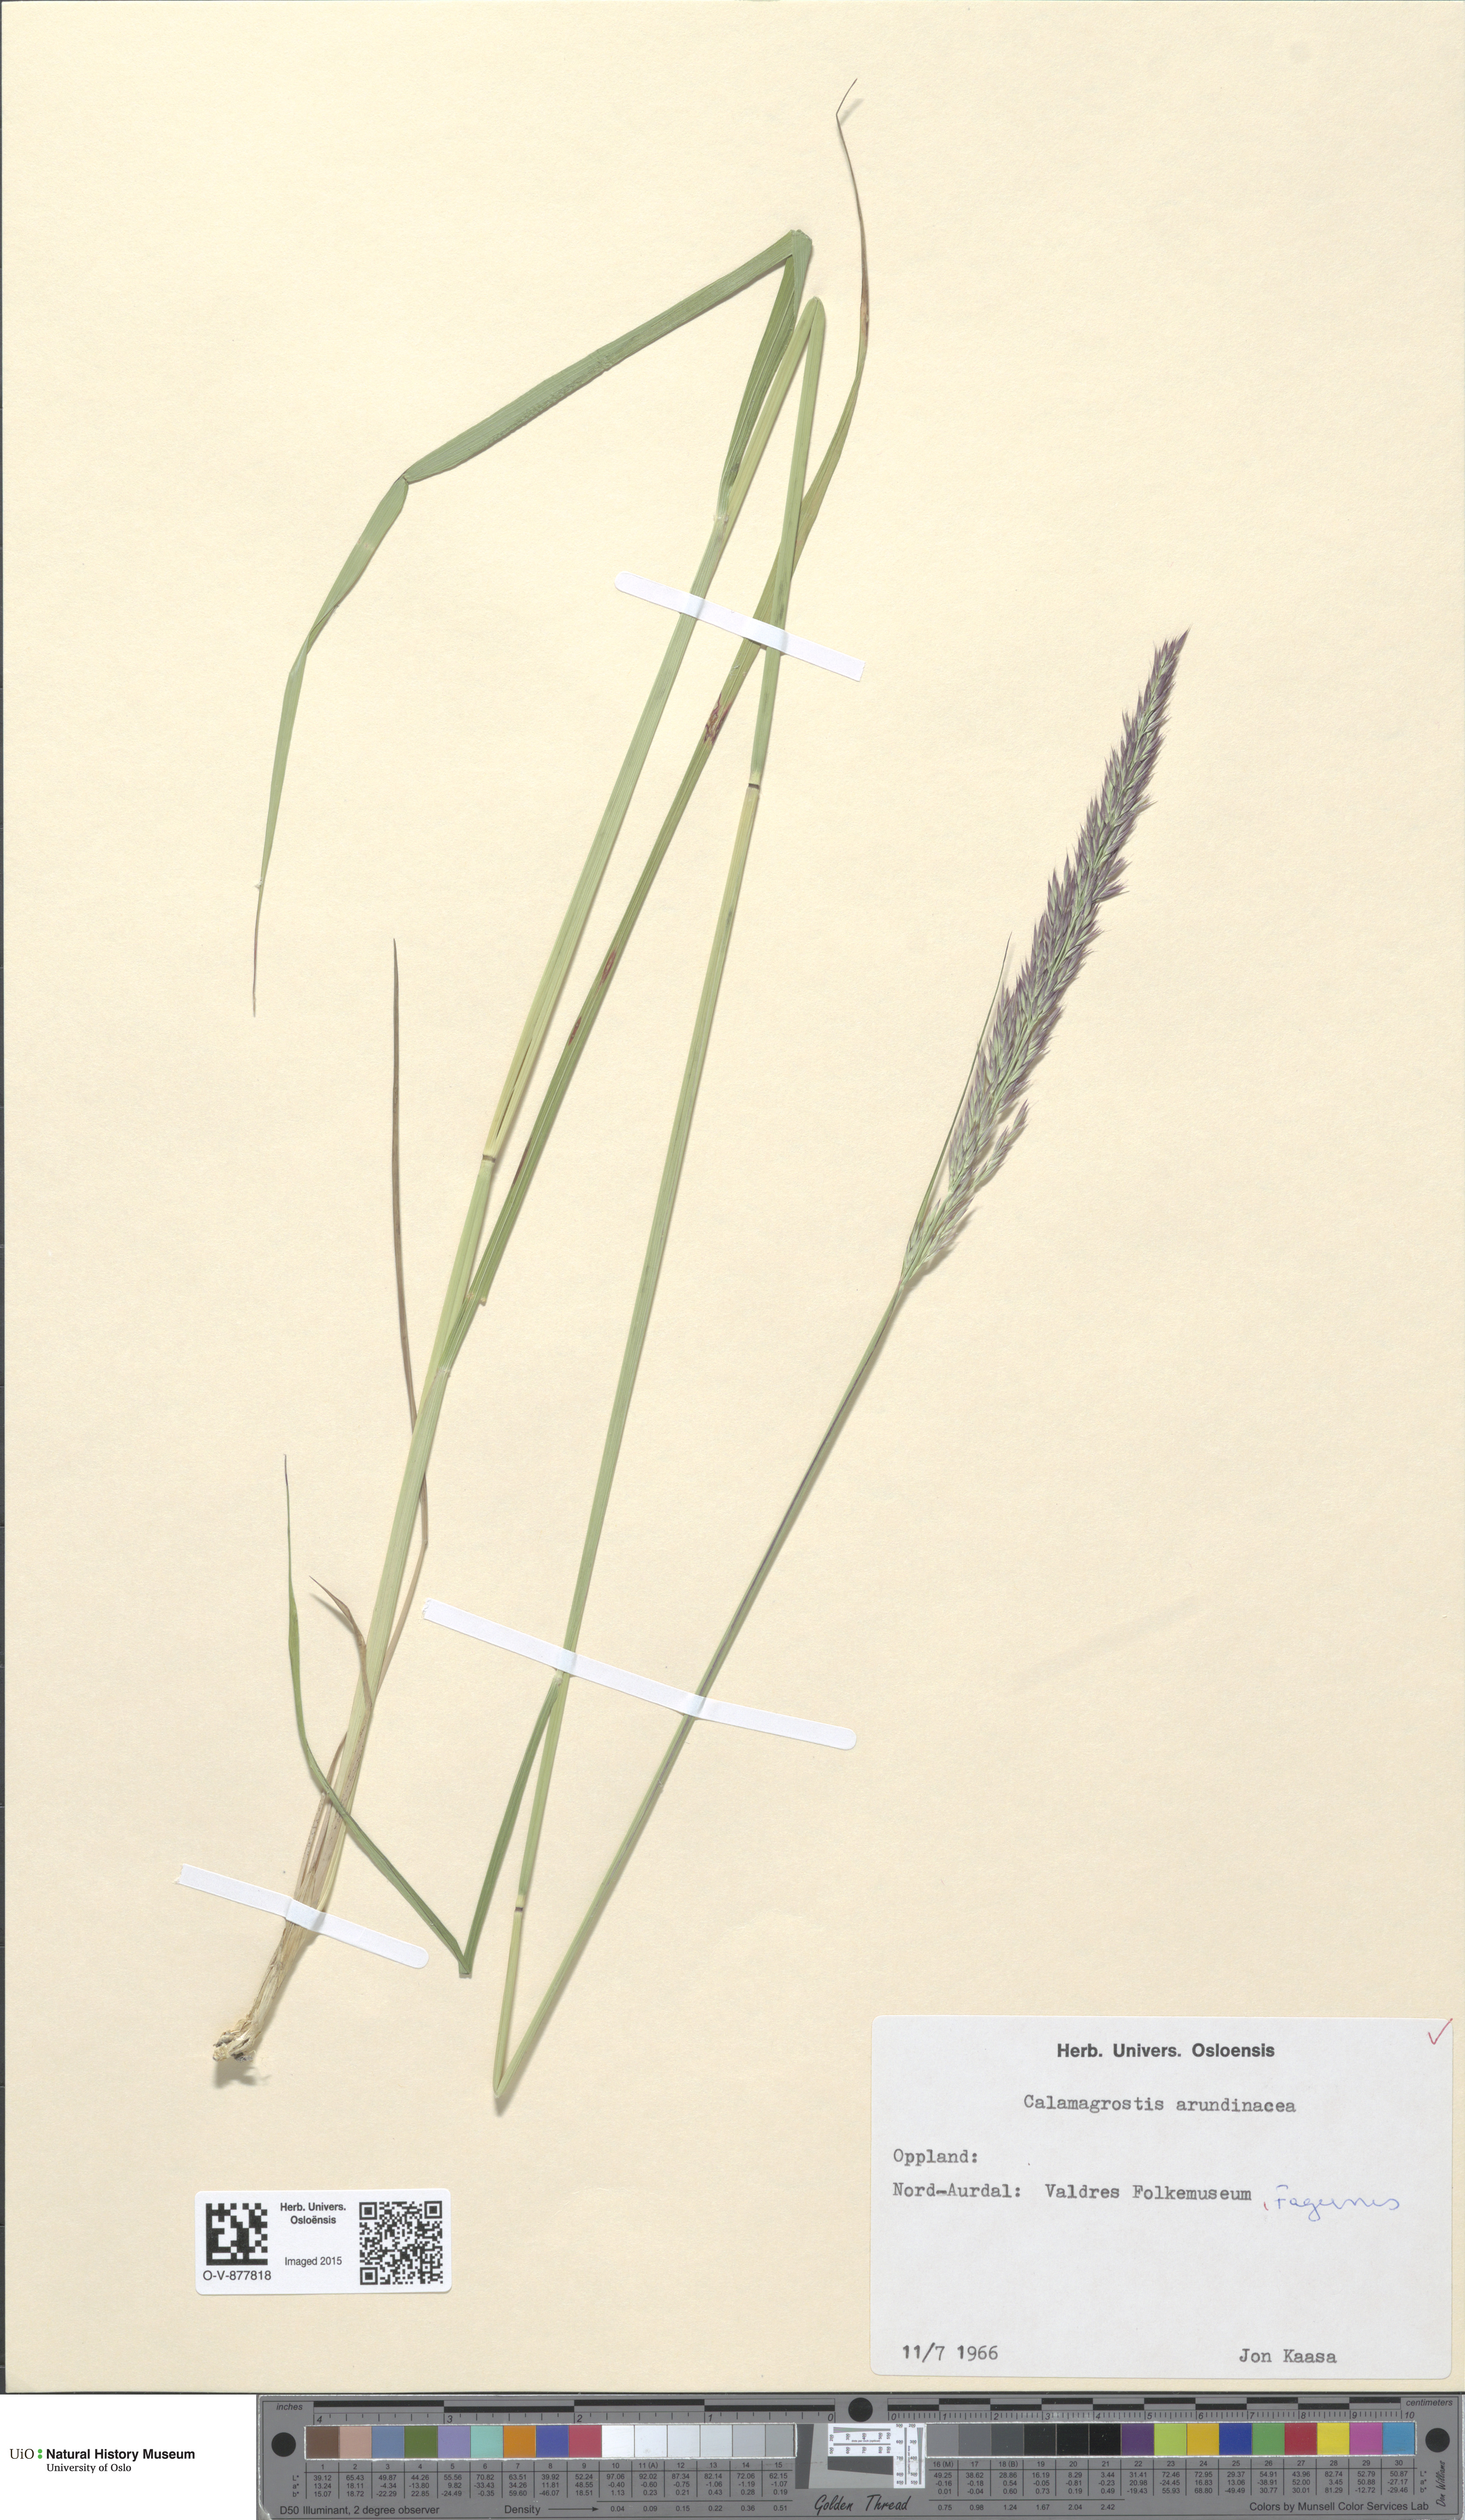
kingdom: Plantae
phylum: Tracheophyta
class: Liliopsida
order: Poales
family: Poaceae
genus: Calamagrostis
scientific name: Calamagrostis arundinacea
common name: Metskastik
